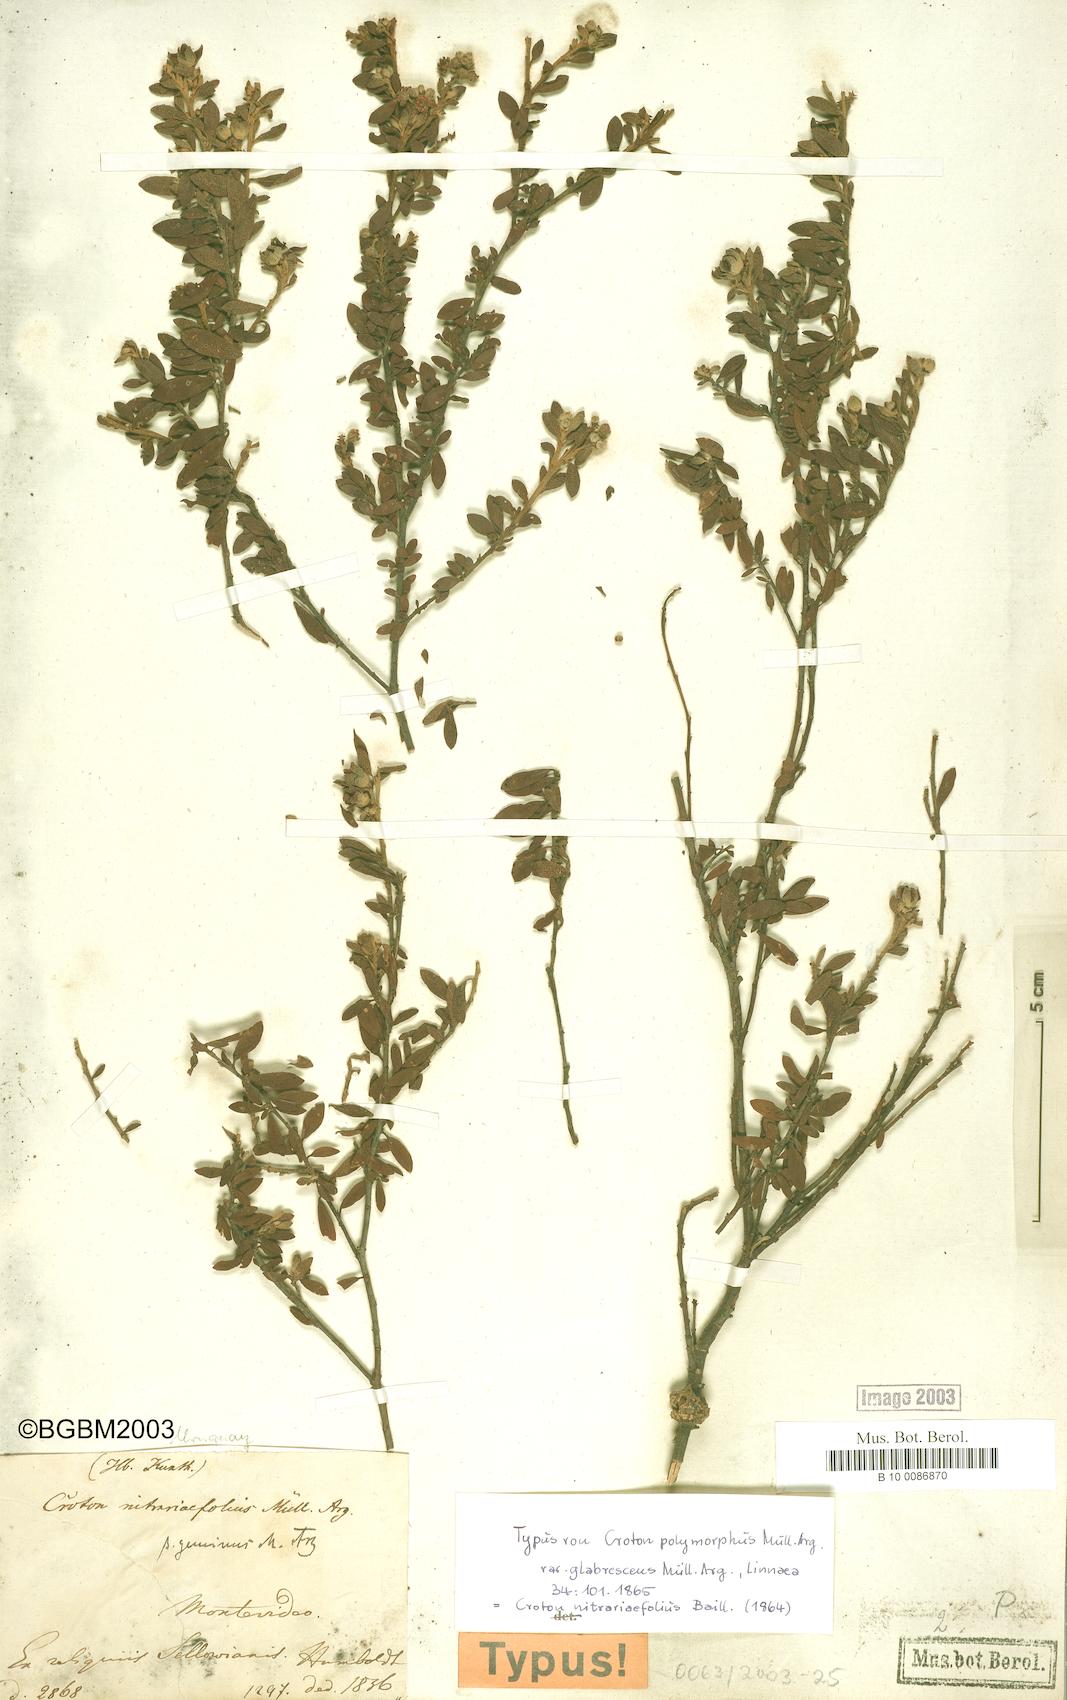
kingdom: Plantae
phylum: Tracheophyta
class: Magnoliopsida
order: Malpighiales
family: Euphorbiaceae
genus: Croton
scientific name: Croton nitrariifolius
